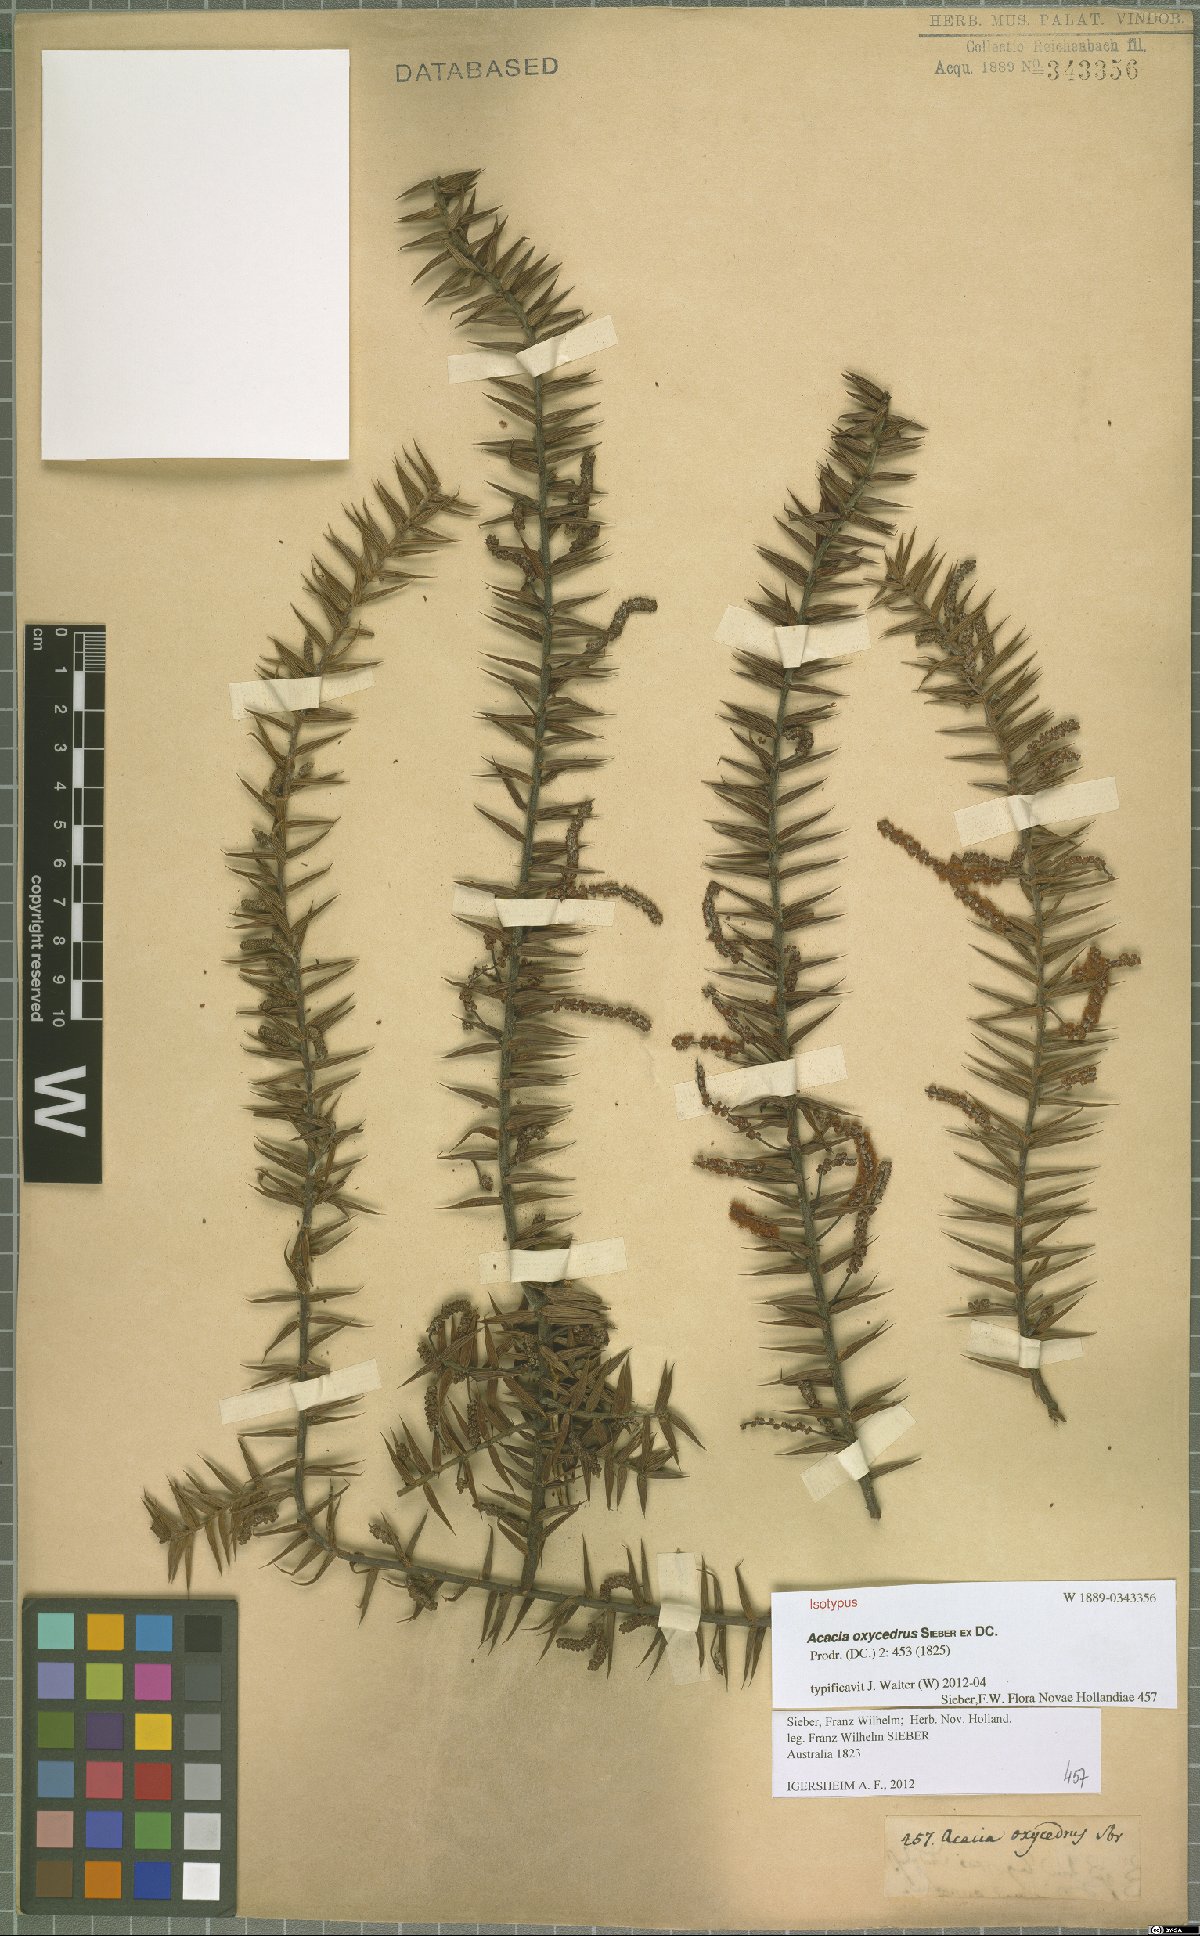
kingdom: Plantae
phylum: Tracheophyta
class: Magnoliopsida
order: Fabales
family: Fabaceae
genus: Acacia
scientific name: Acacia oxycedrus
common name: Spike wattle
